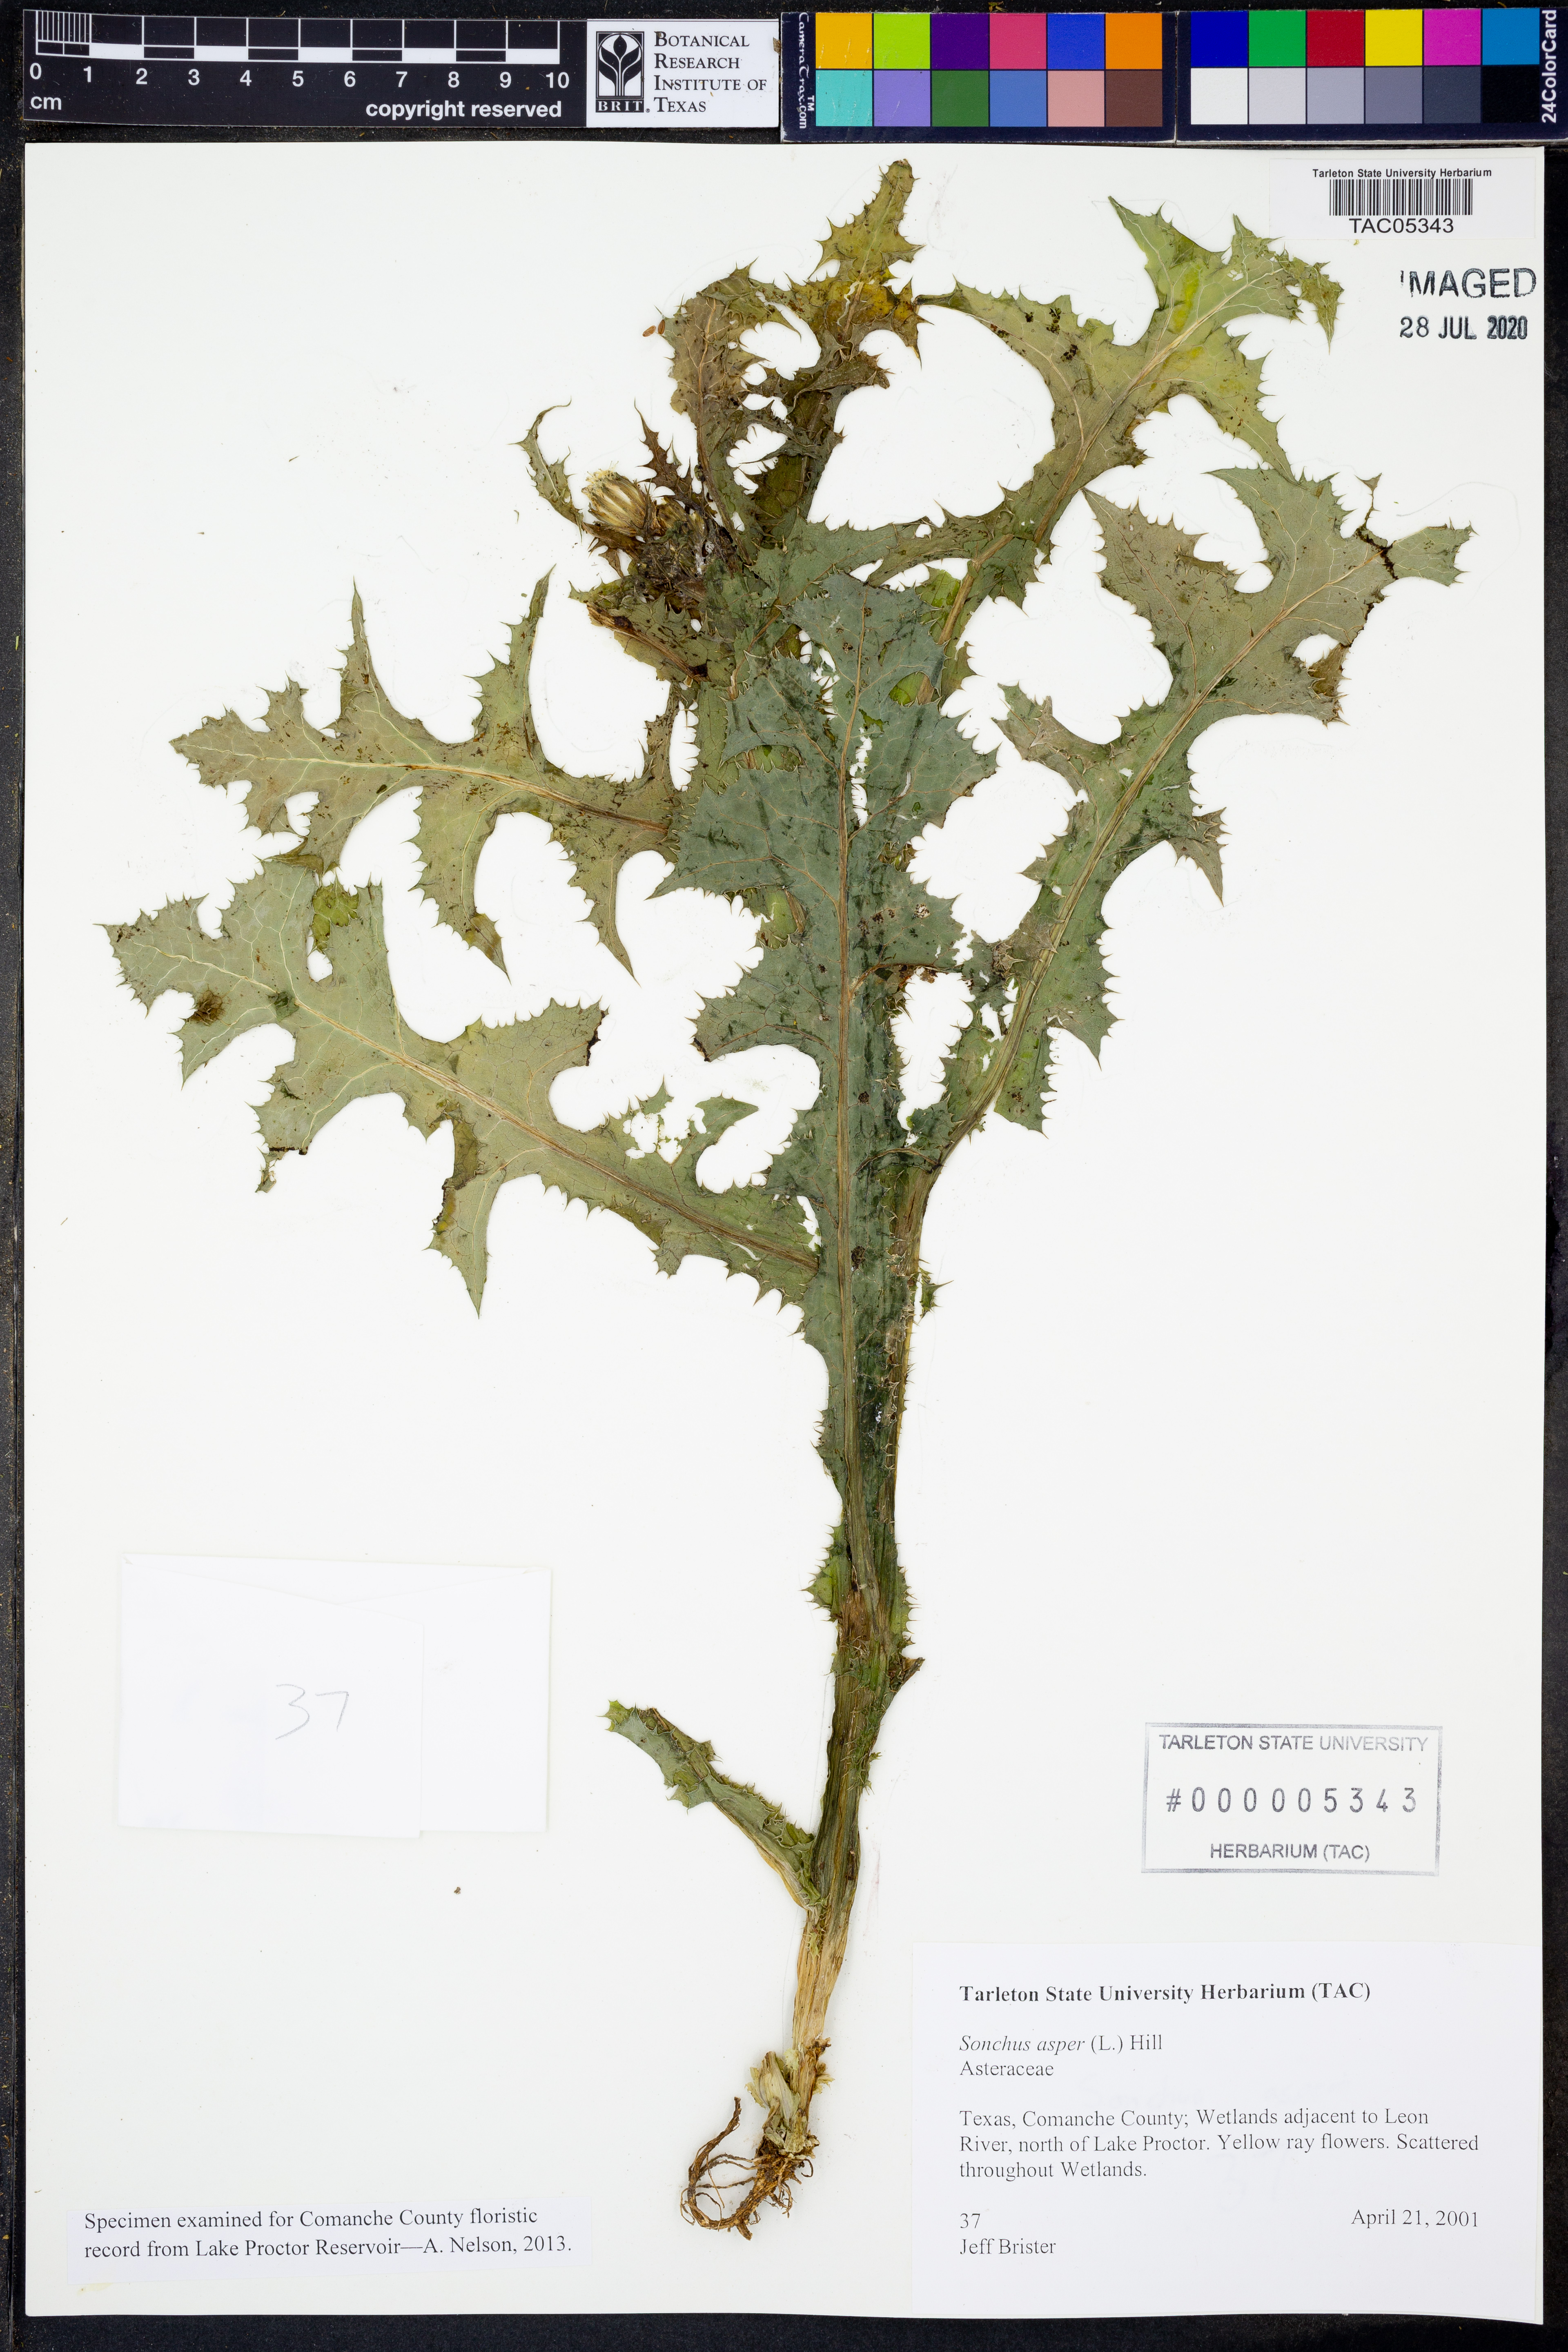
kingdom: Plantae
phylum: Tracheophyta
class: Magnoliopsida
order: Asterales
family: Asteraceae
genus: Sonchus
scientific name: Sonchus asper
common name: Prickly sow-thistle
